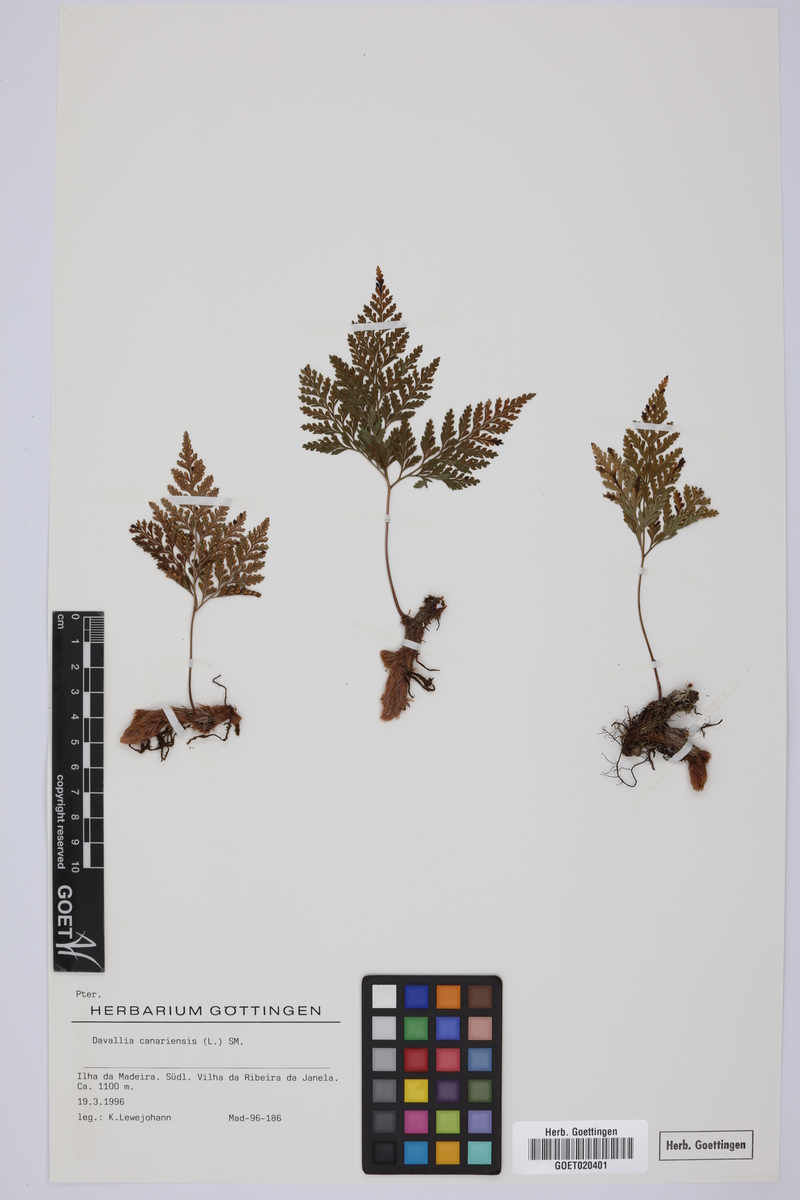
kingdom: Plantae
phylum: Tracheophyta
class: Polypodiopsida
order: Polypodiales
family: Davalliaceae
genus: Davallia
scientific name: Davallia canariensis
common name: Hare's-foot fern
